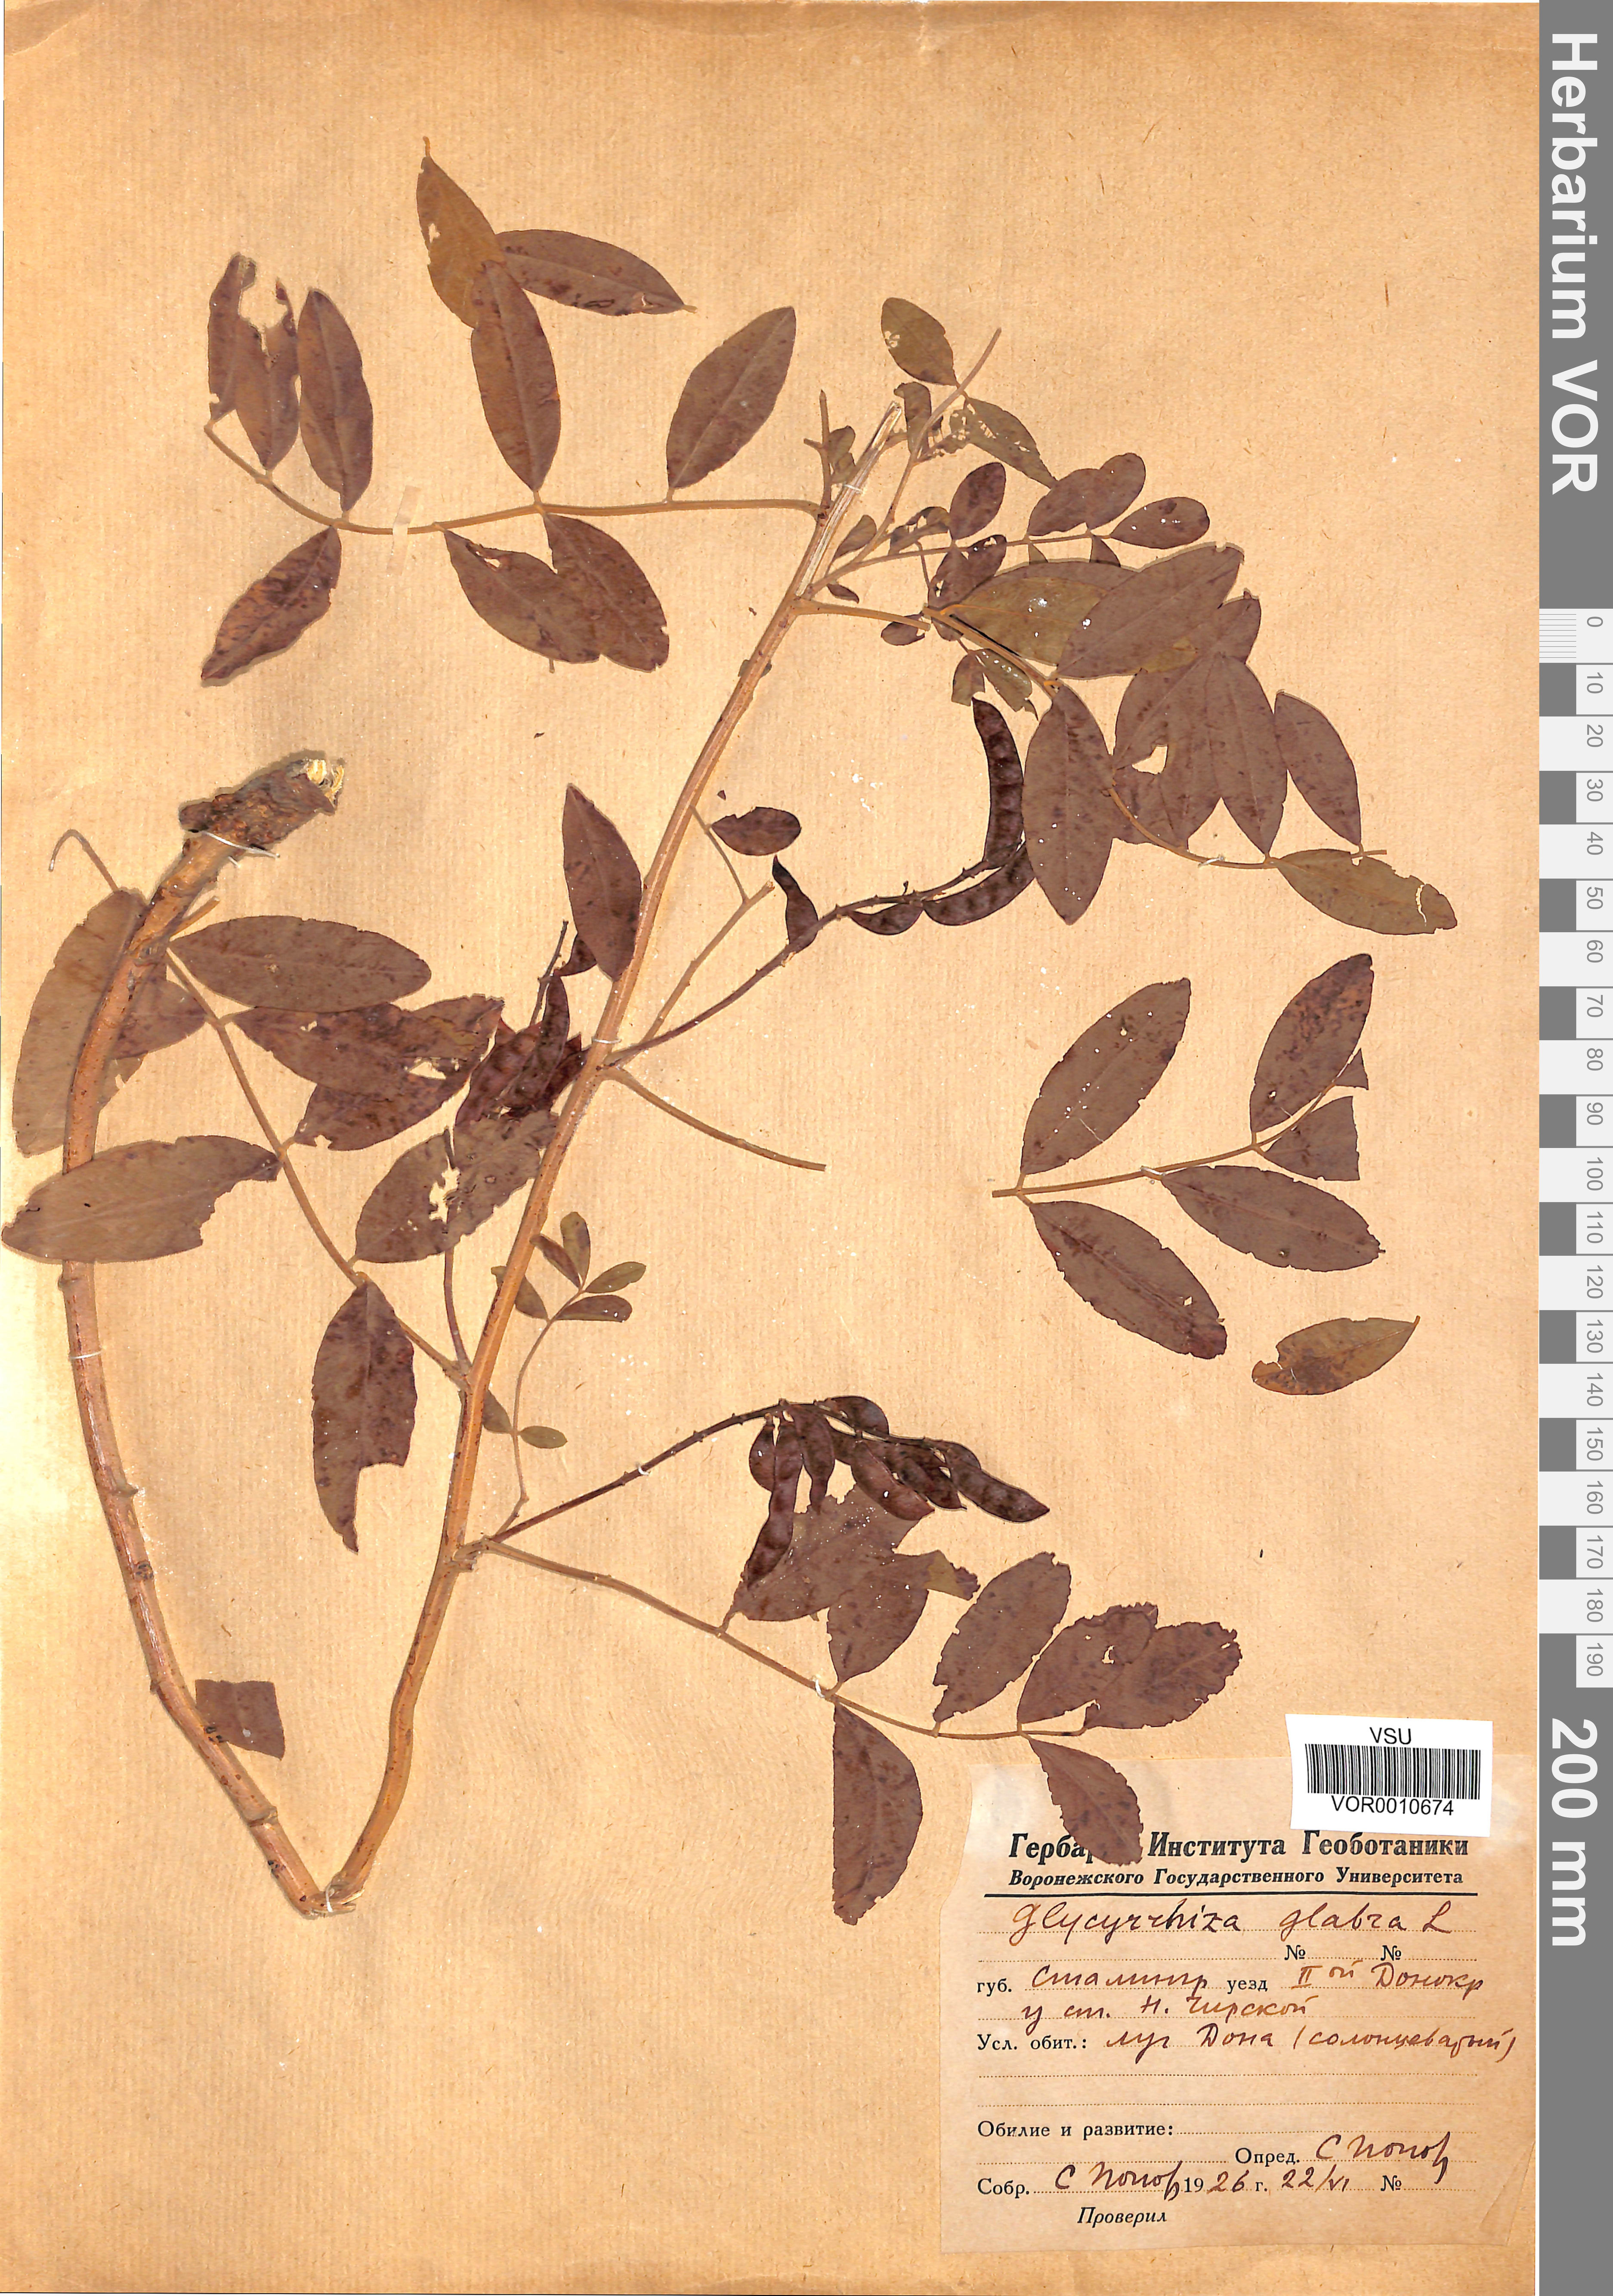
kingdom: Plantae
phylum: Tracheophyta
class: Magnoliopsida
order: Fabales
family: Fabaceae
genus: Glycyrrhiza
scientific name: Glycyrrhiza glabra
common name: Liquorice
